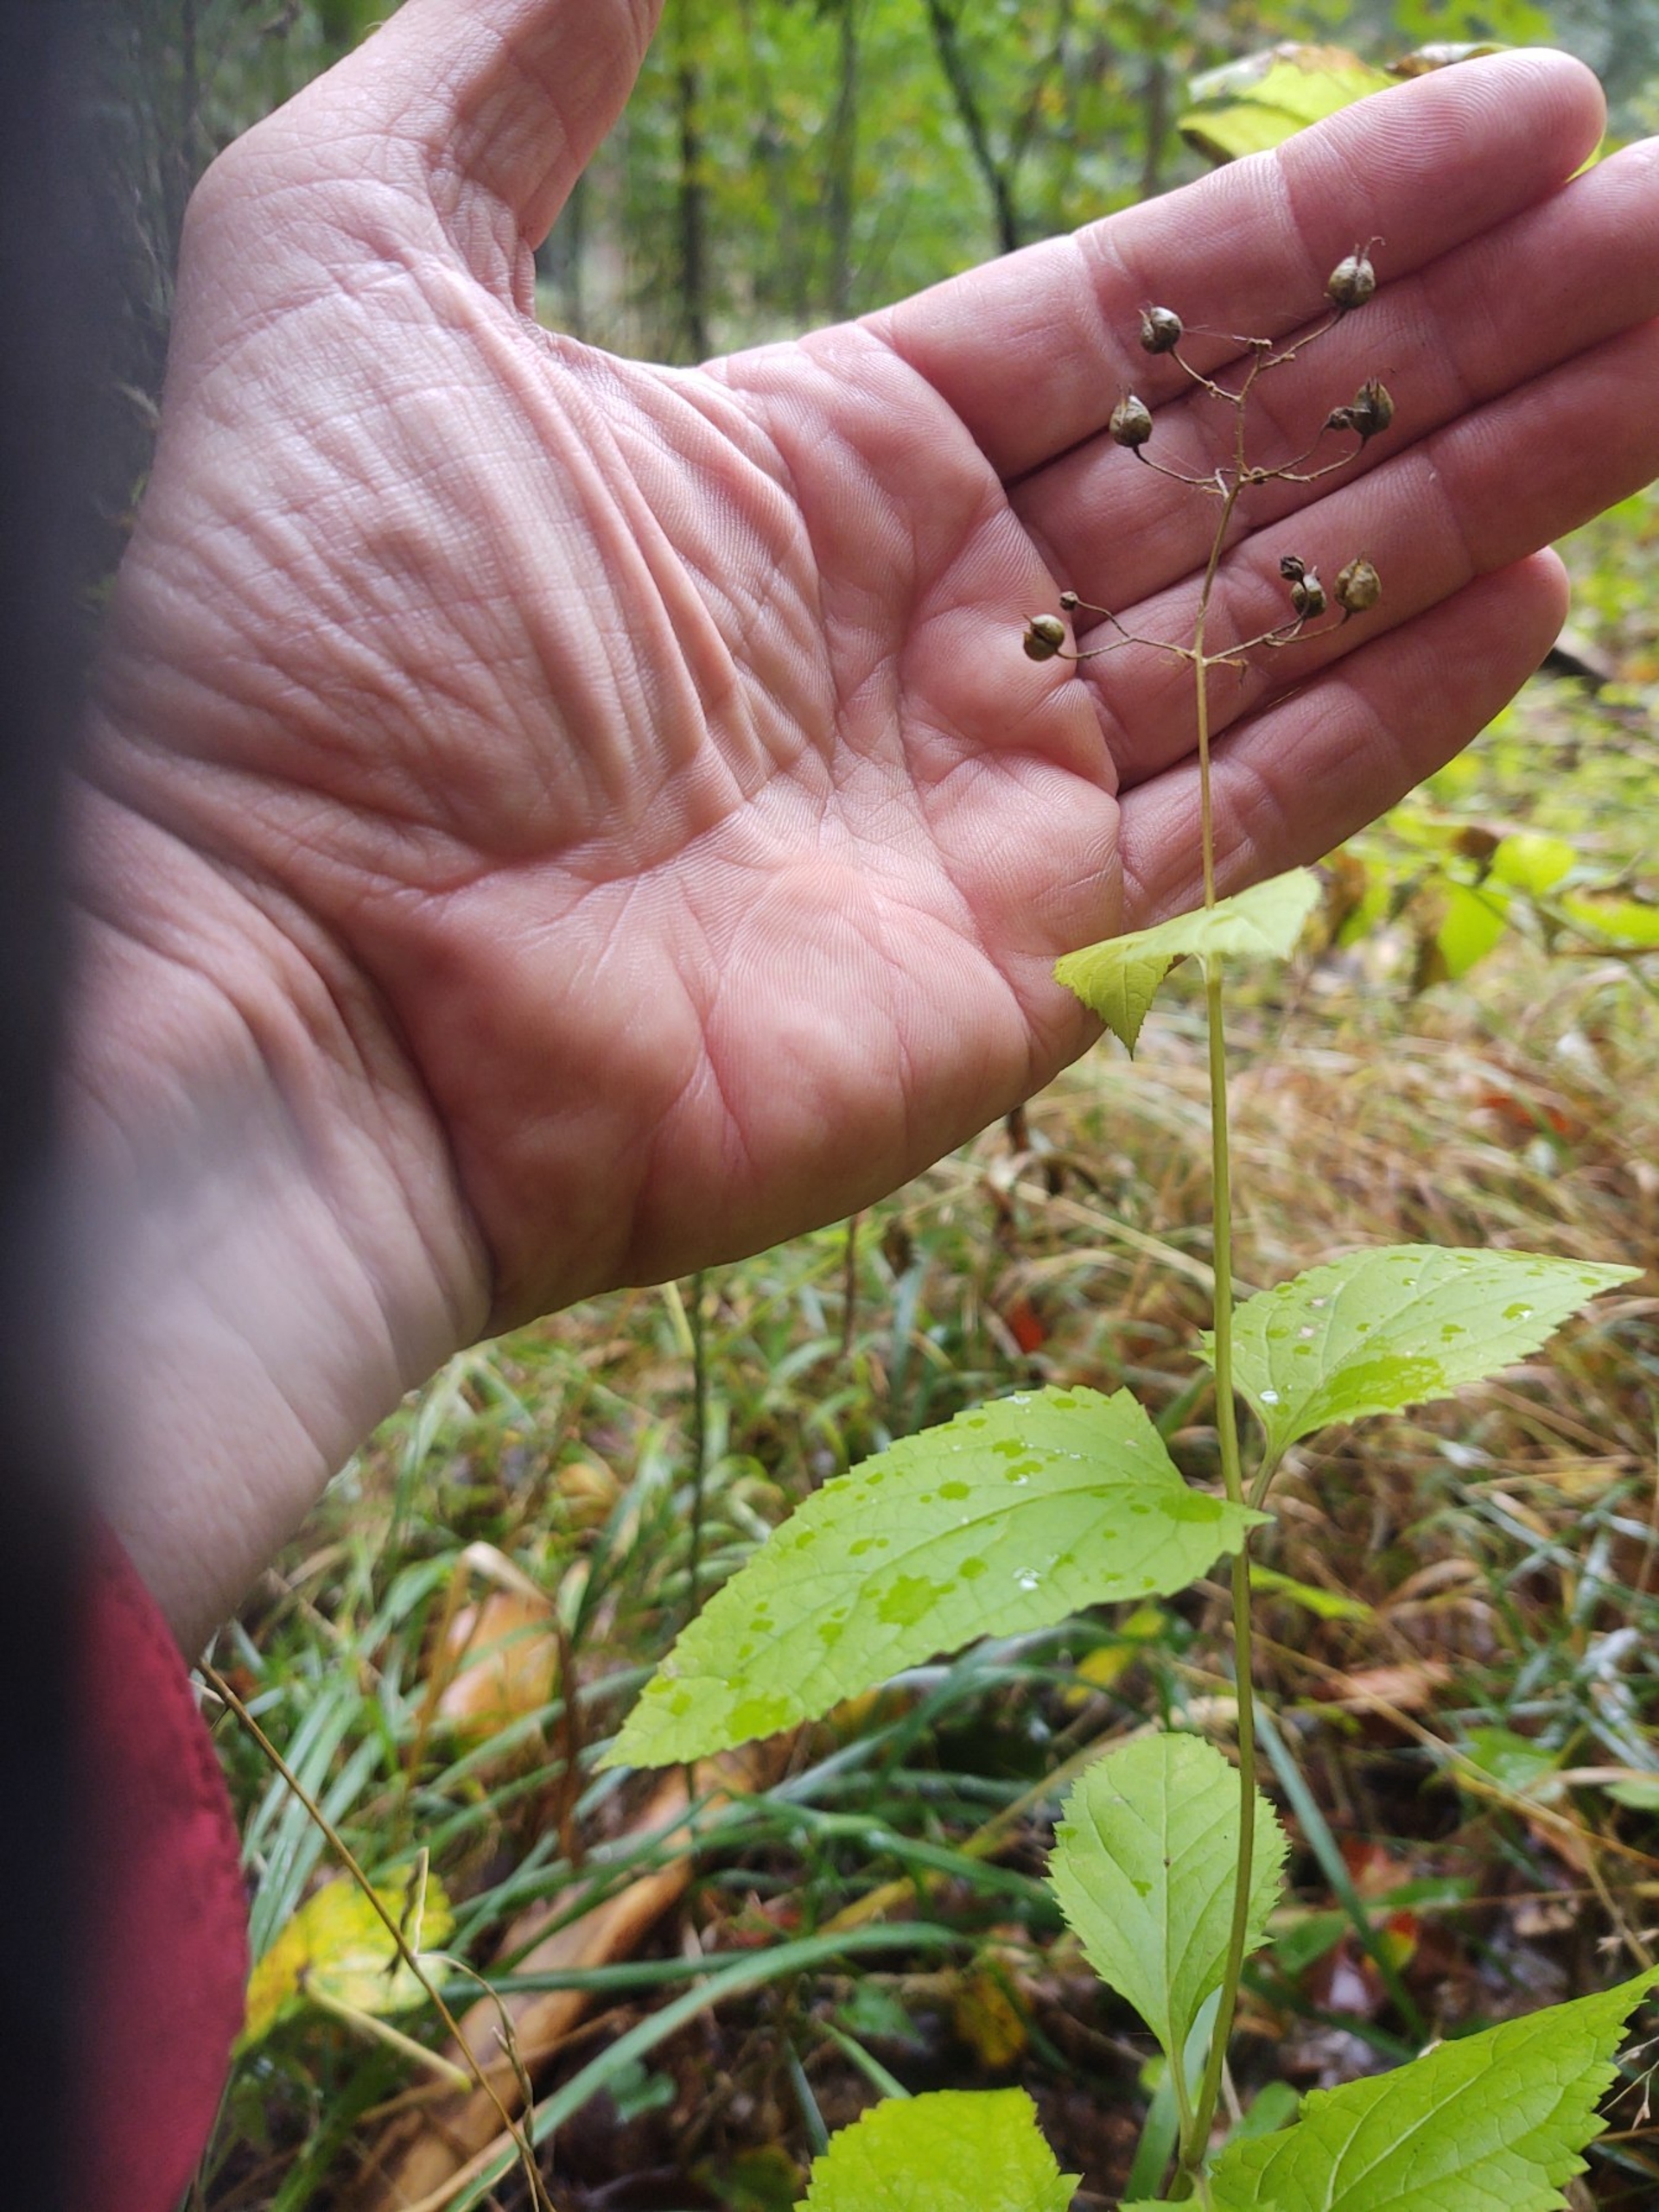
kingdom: Plantae
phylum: Tracheophyta
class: Magnoliopsida
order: Lamiales
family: Scrophulariaceae
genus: Scrophularia
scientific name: Scrophularia nodosa
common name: Knoldet brunrod
